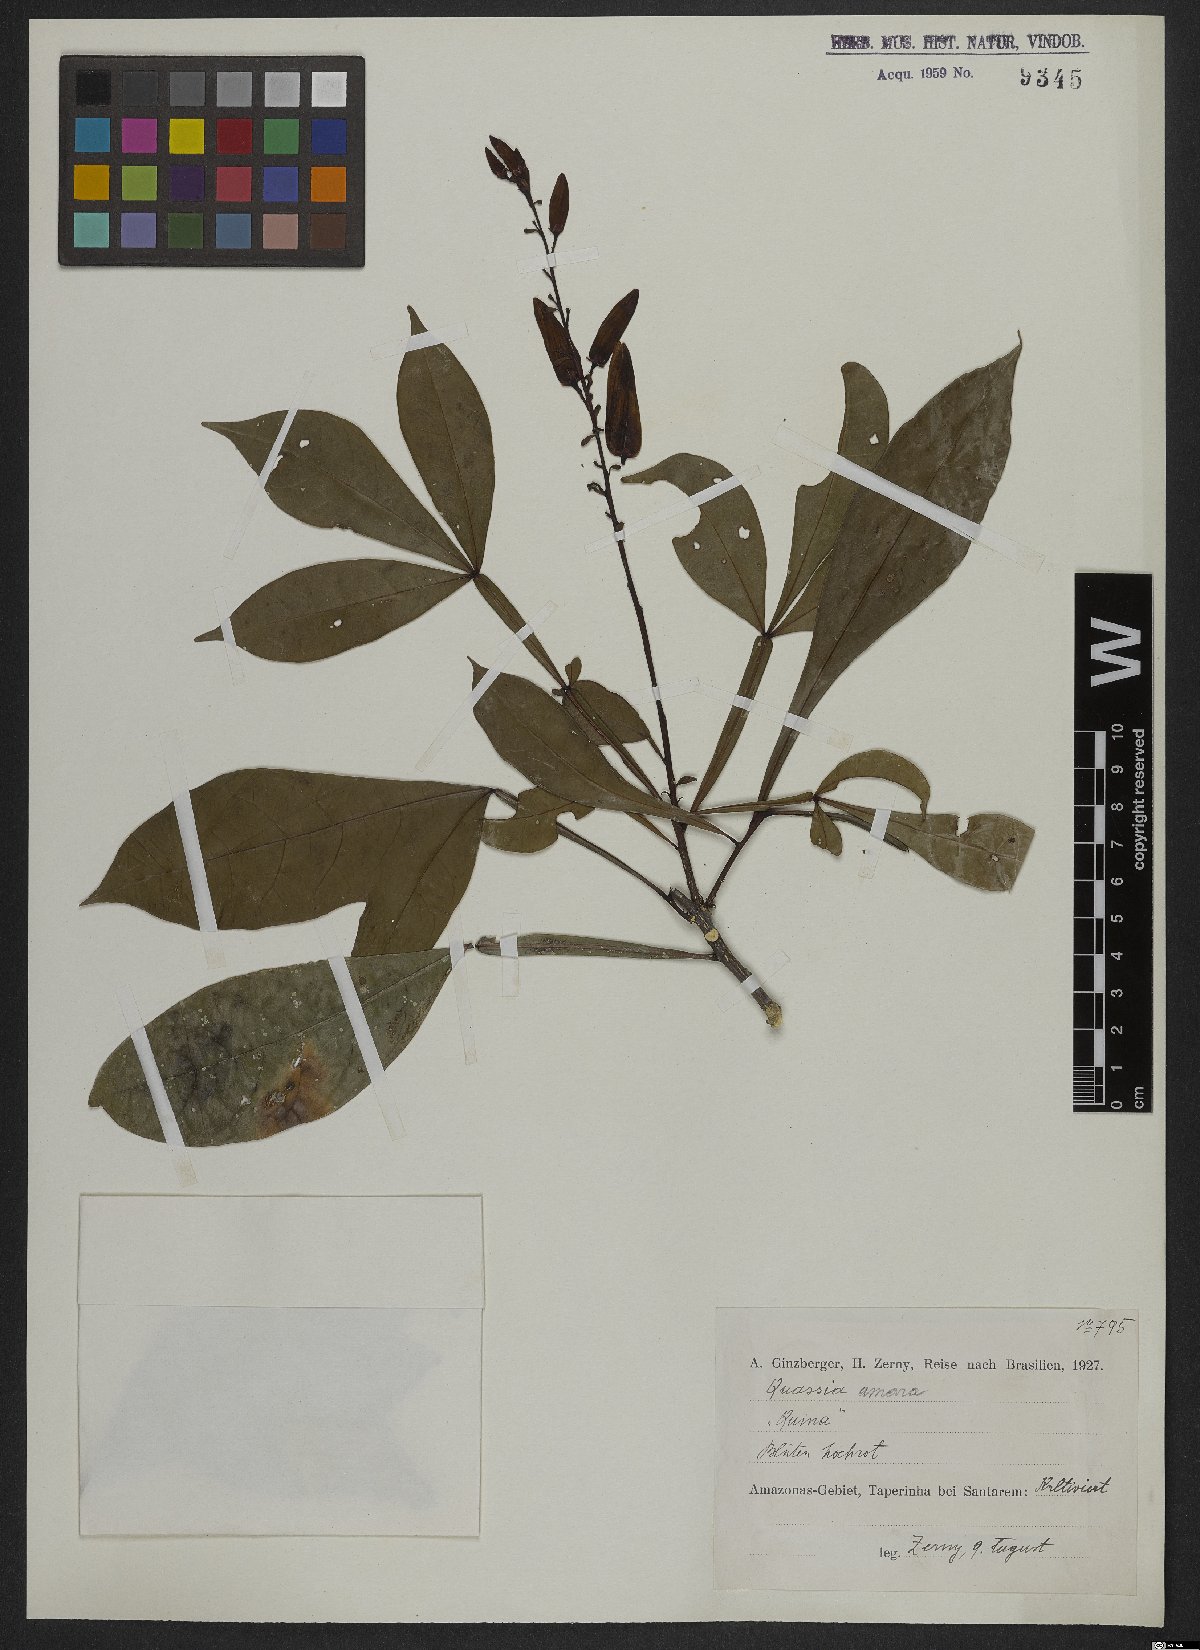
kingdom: Plantae
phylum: Tracheophyta
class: Magnoliopsida
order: Sapindales
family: Simaroubaceae
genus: Quassia
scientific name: Quassia amara
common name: Quassia
